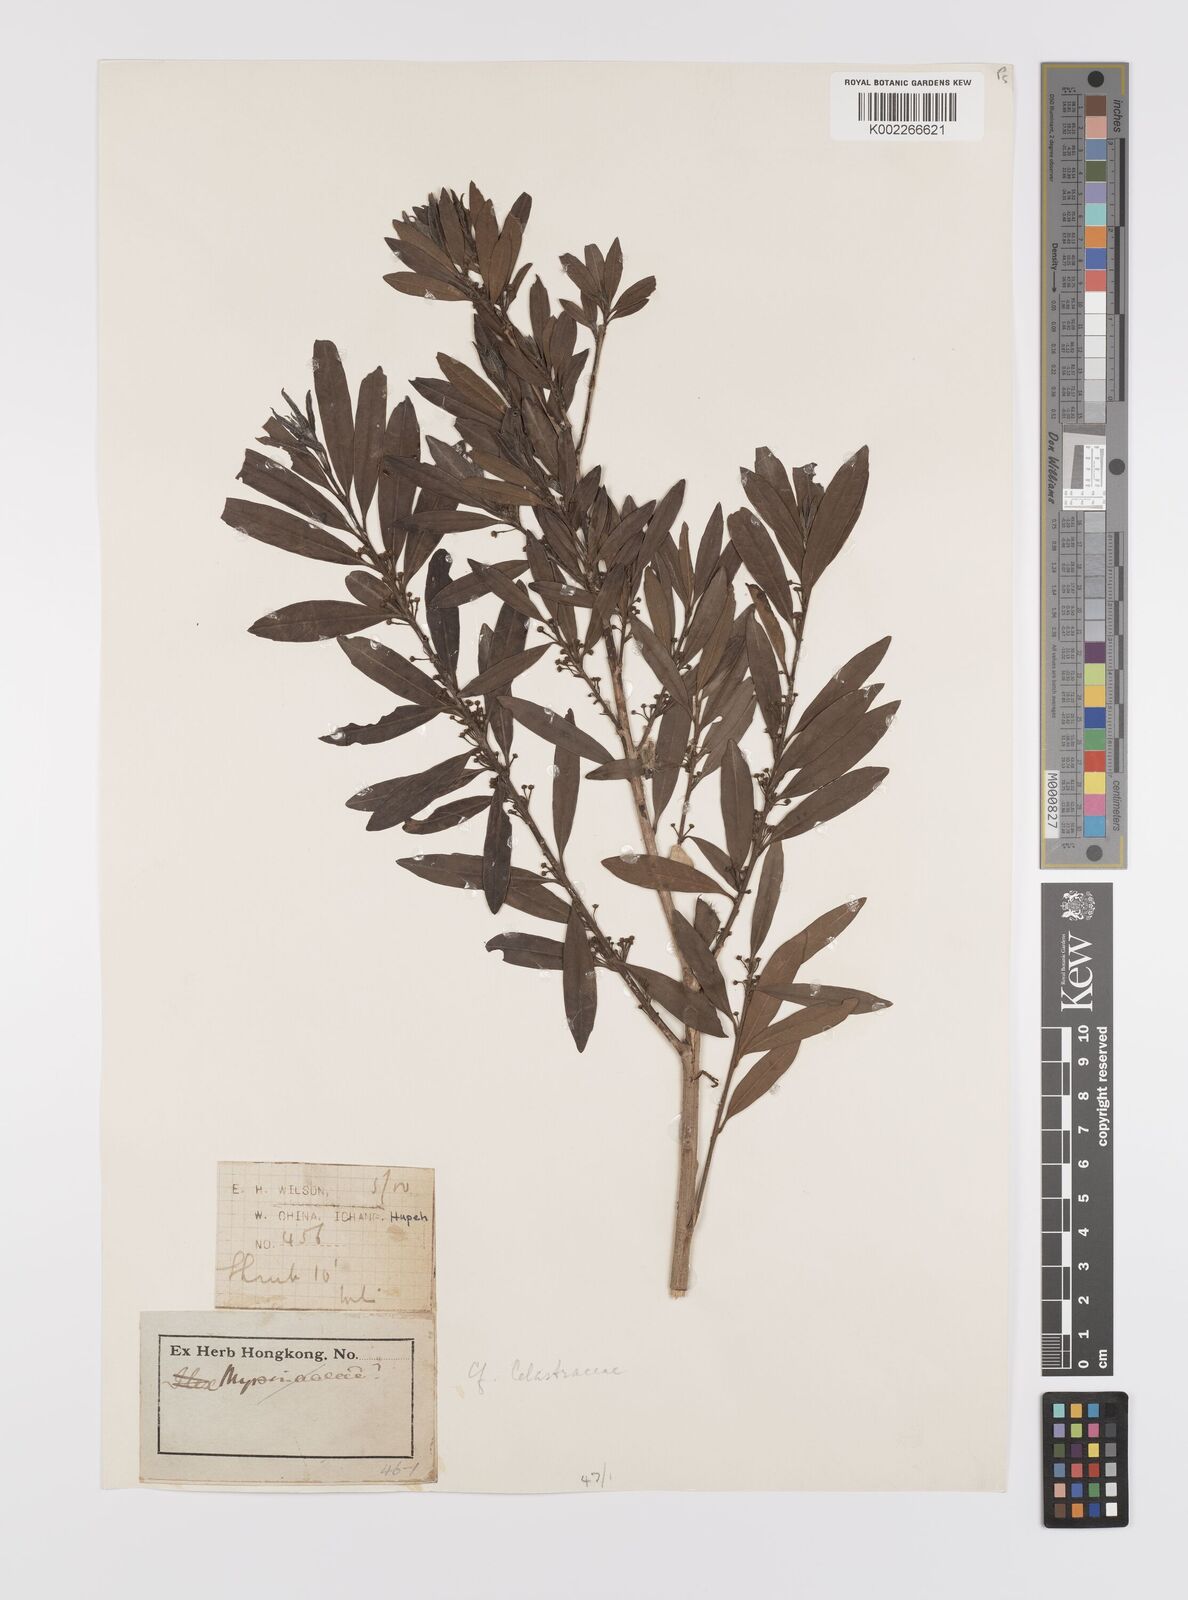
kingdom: Plantae
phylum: Tracheophyta
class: Magnoliopsida
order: Celastrales
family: Celastraceae
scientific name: Celastraceae
